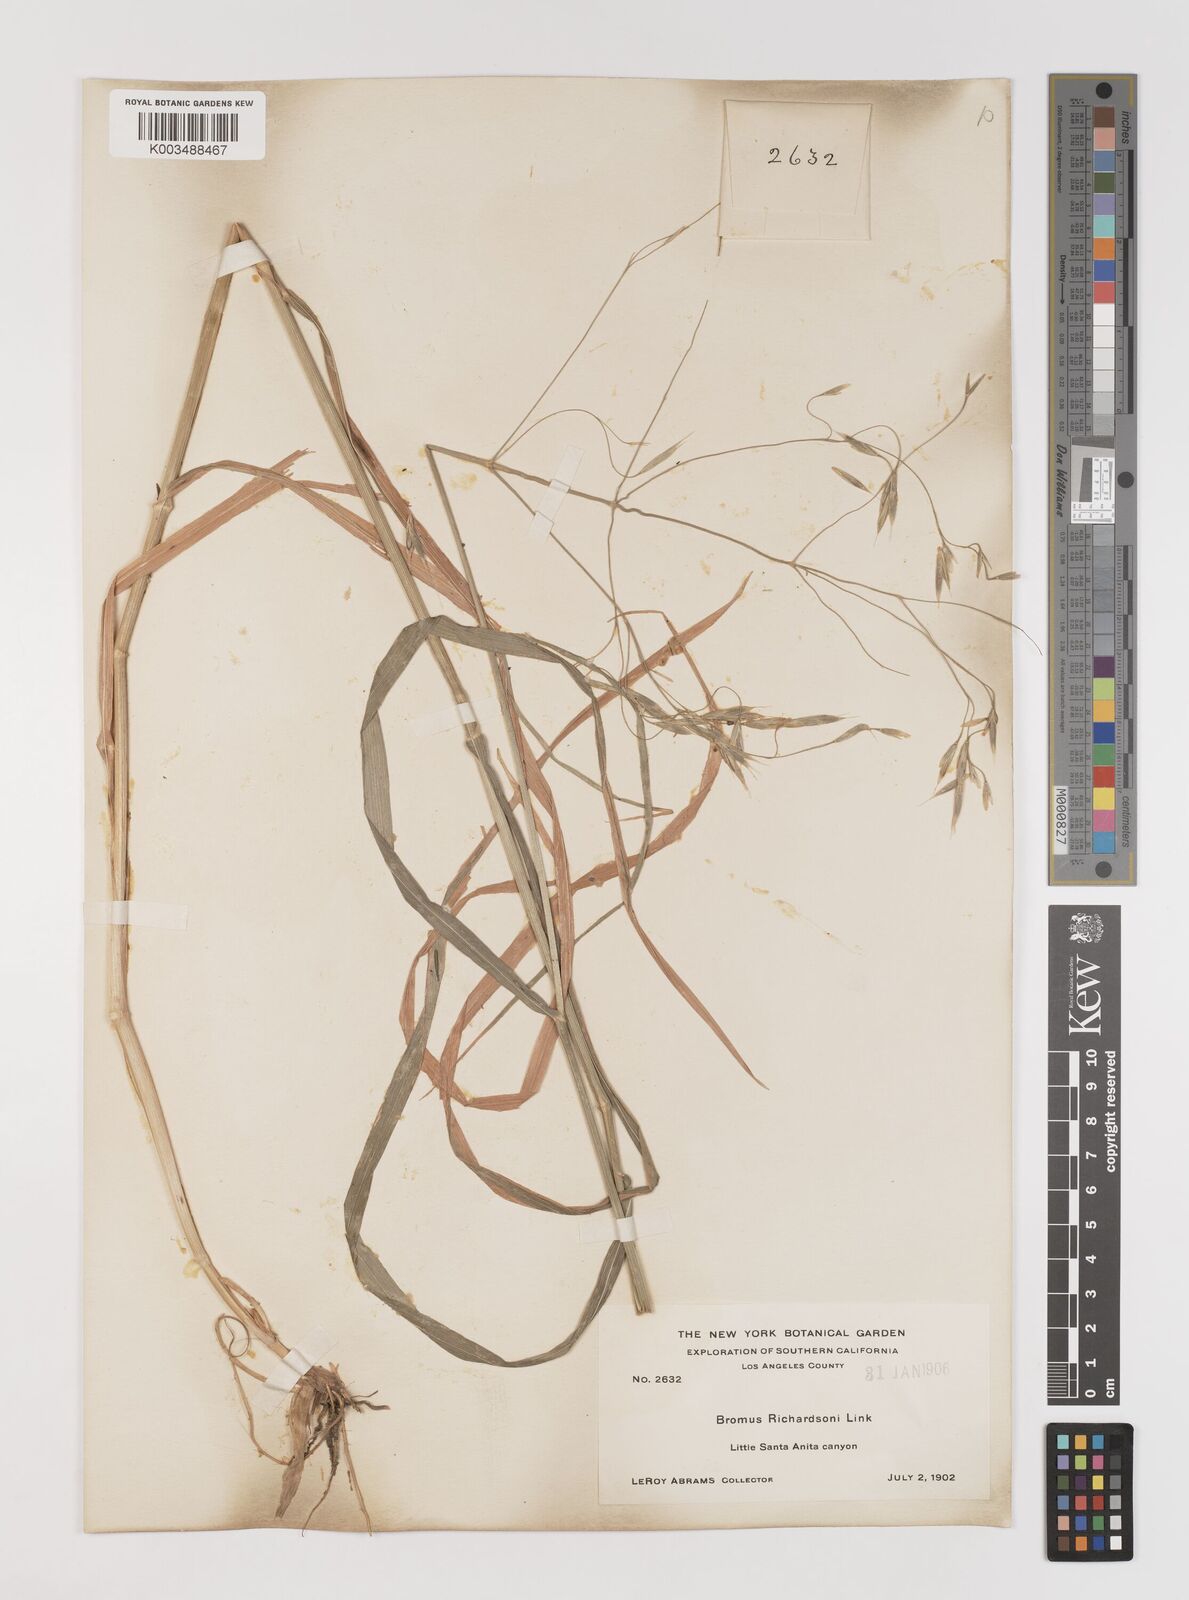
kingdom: Plantae
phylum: Tracheophyta
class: Liliopsida
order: Poales
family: Poaceae
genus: Bromus
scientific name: Bromus richardsonii
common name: Richardson's brome
